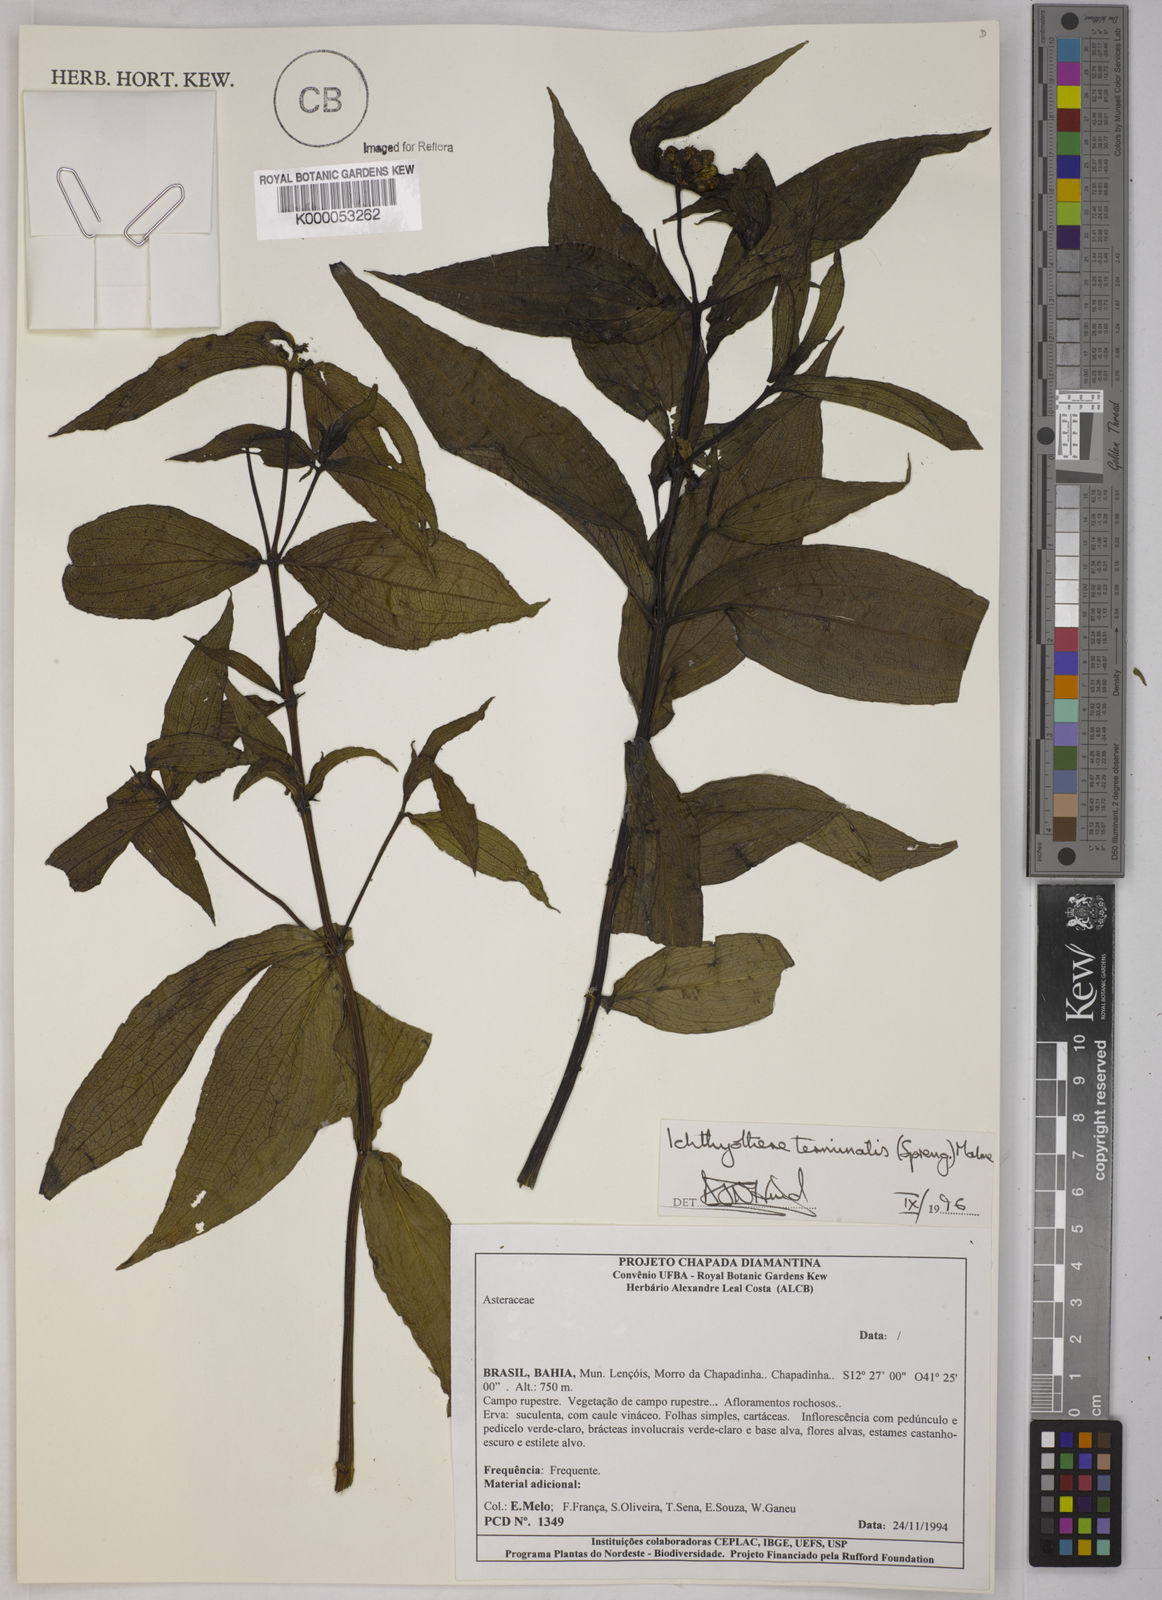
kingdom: Plantae
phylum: Tracheophyta
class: Magnoliopsida
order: Asterales
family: Asteraceae
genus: Ichthyothere
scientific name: Ichthyothere terminalis
